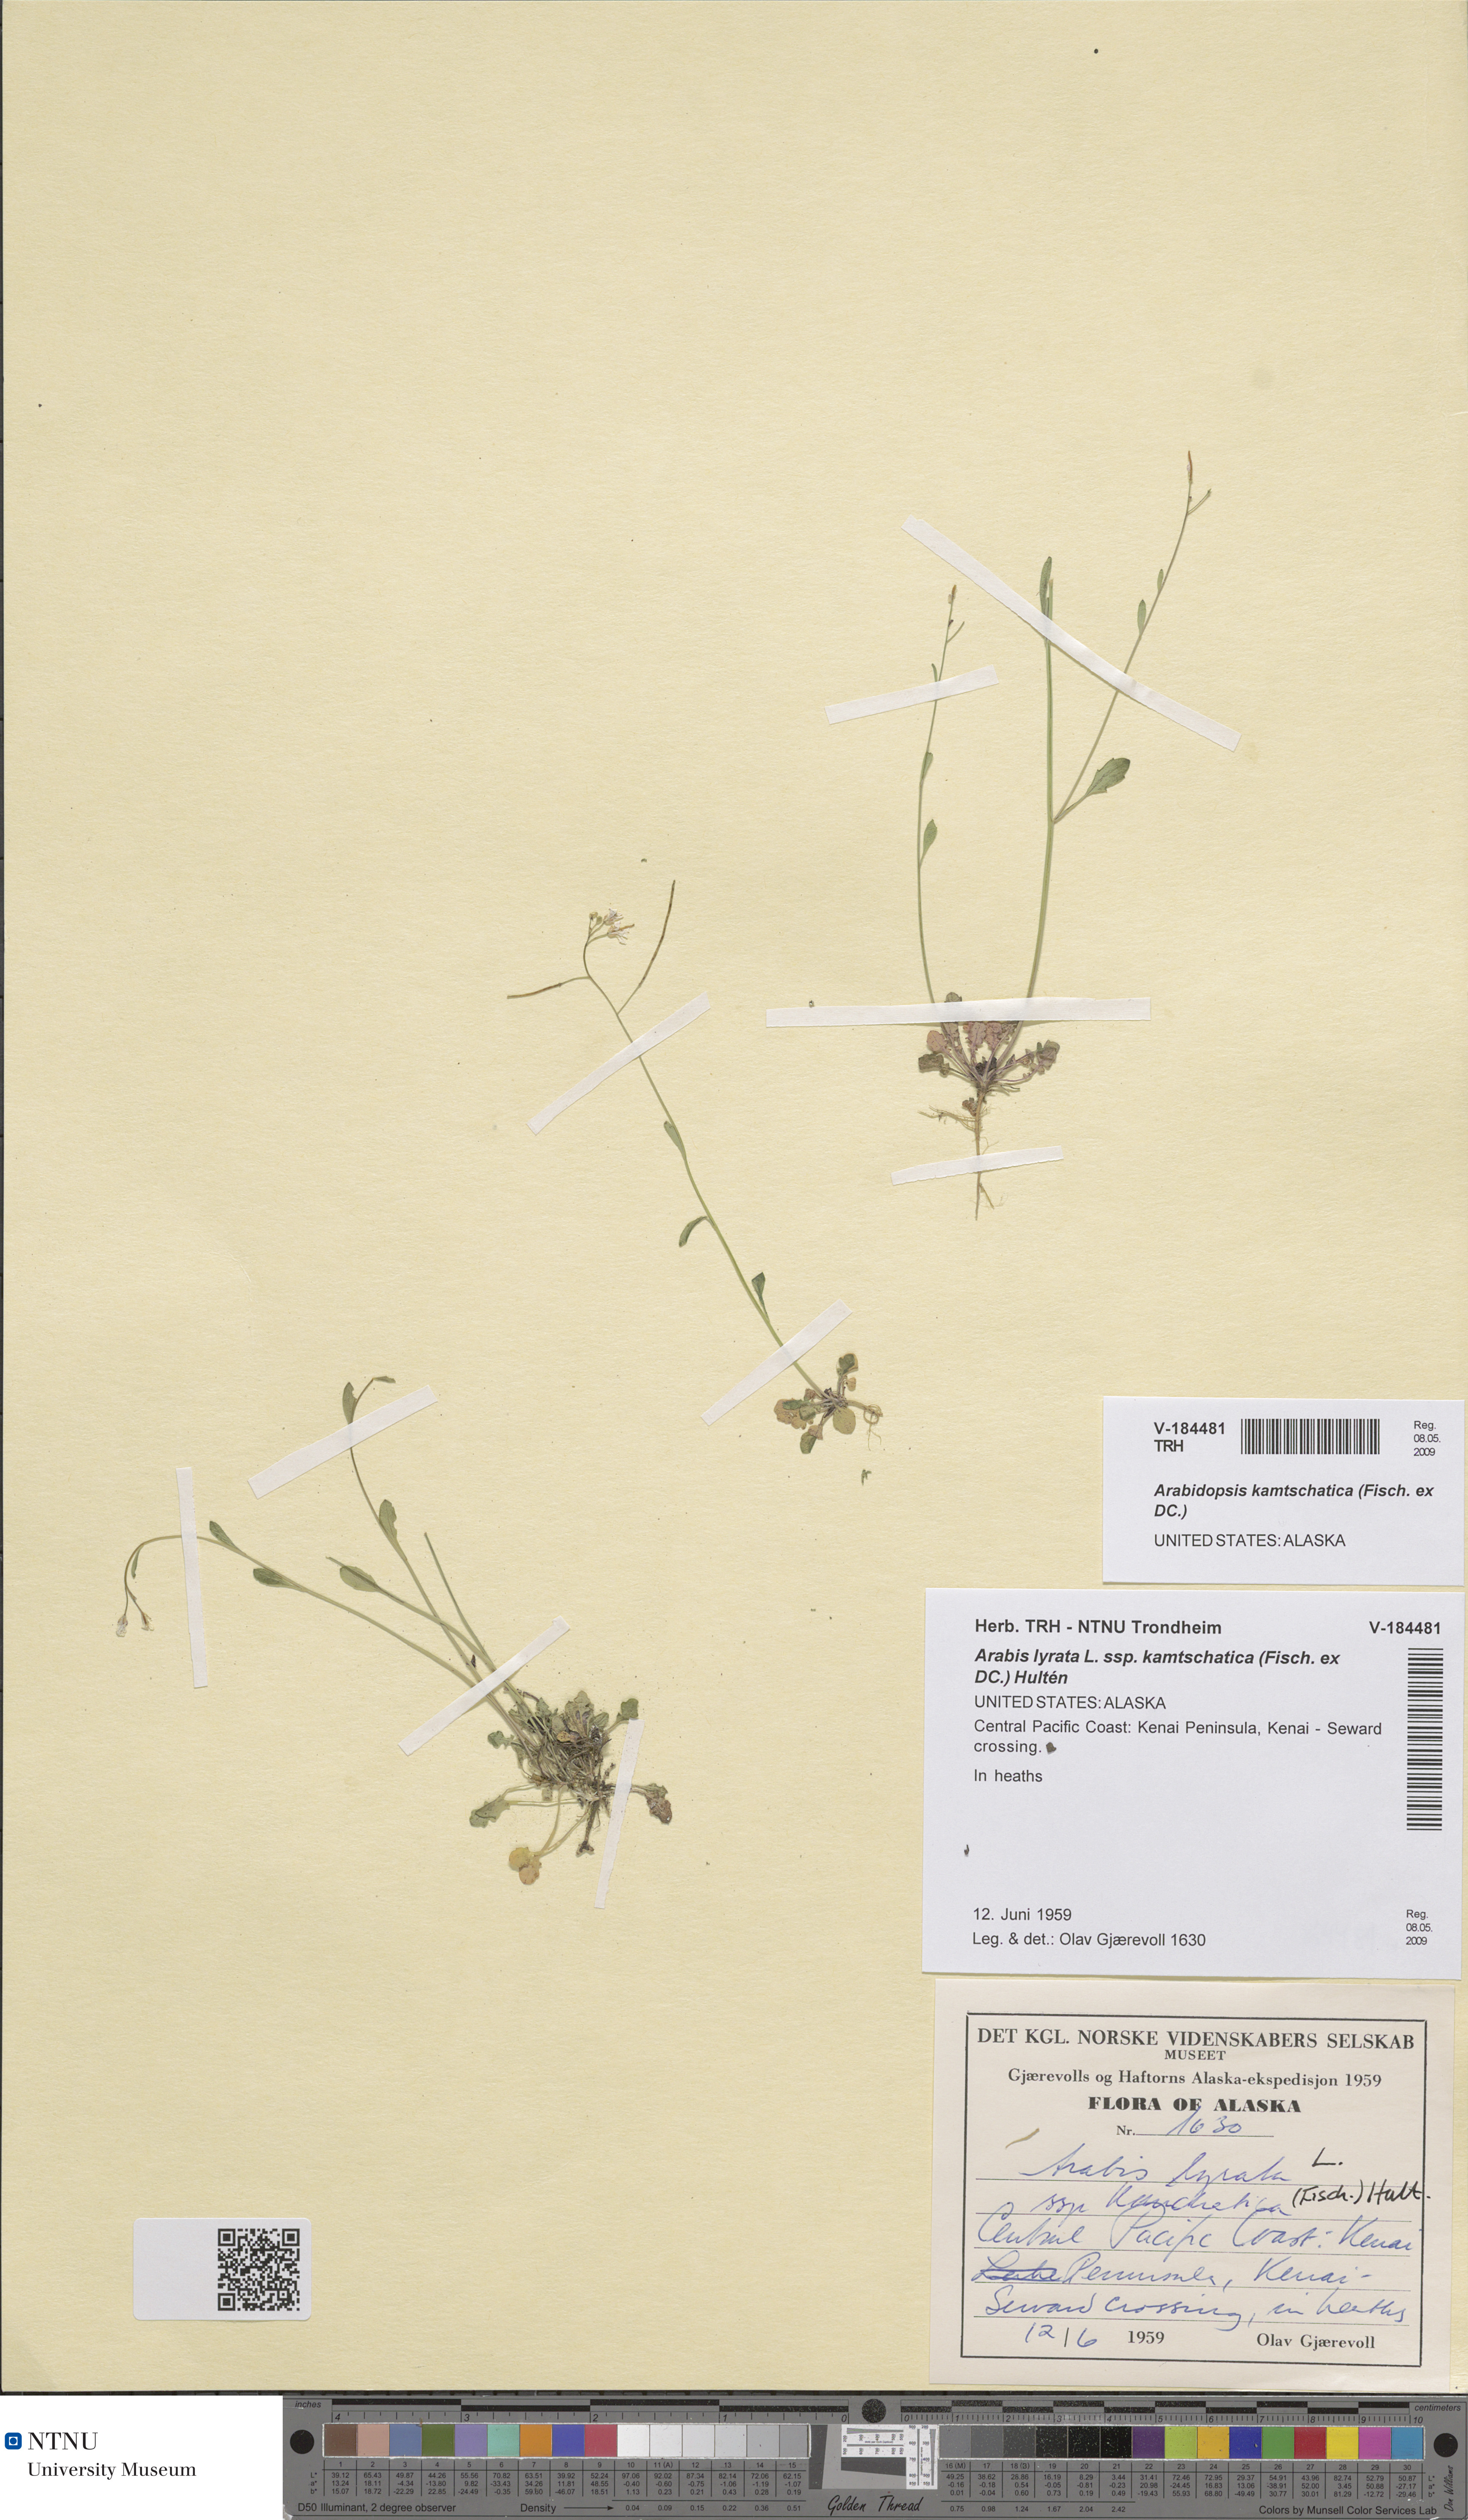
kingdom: Plantae
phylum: Tracheophyta
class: Magnoliopsida
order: Brassicales
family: Brassicaceae
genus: Arabidopsis
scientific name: Arabidopsis lyrata
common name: Lyrate rockcress
